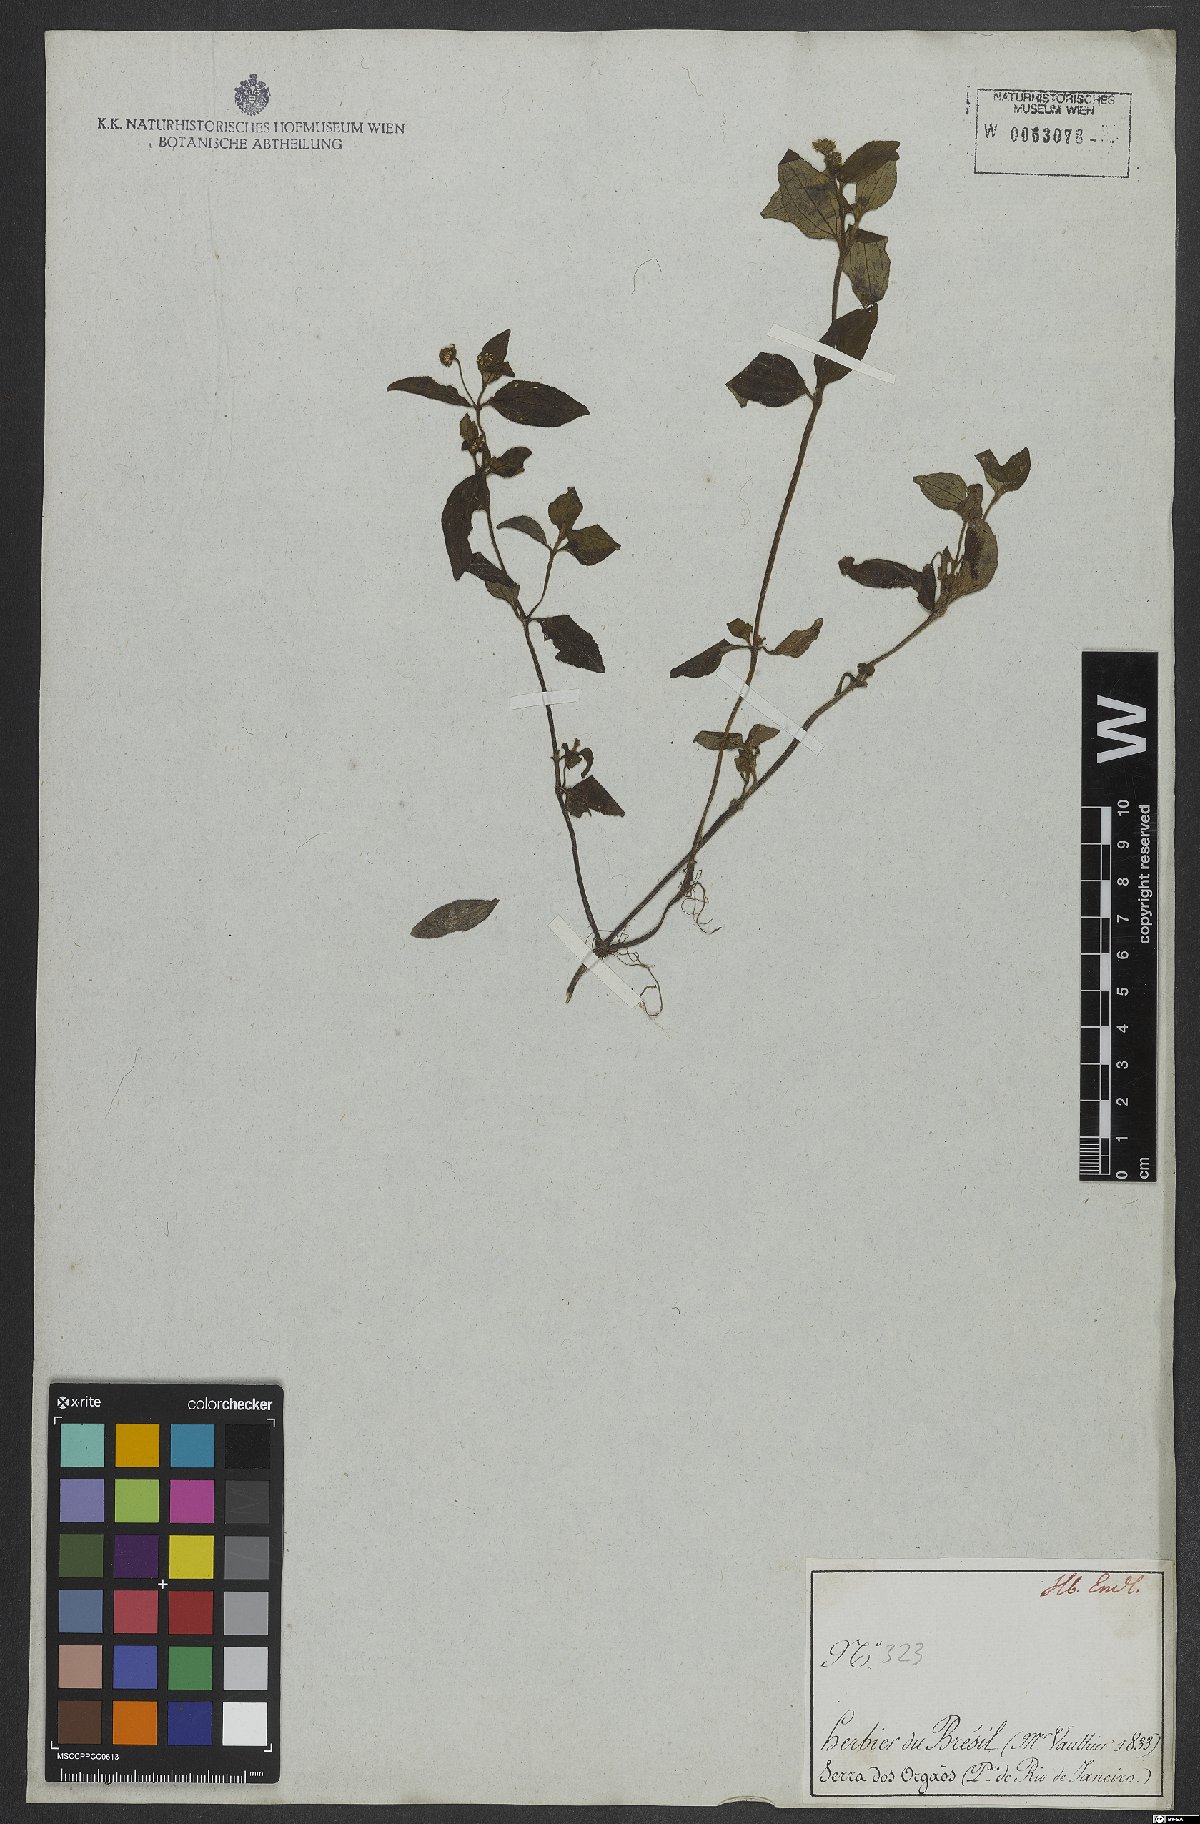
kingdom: Plantae
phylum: Tracheophyta
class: Magnoliopsida
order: Asterales
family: Asteraceae
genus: Eclipta
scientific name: Eclipta alba
